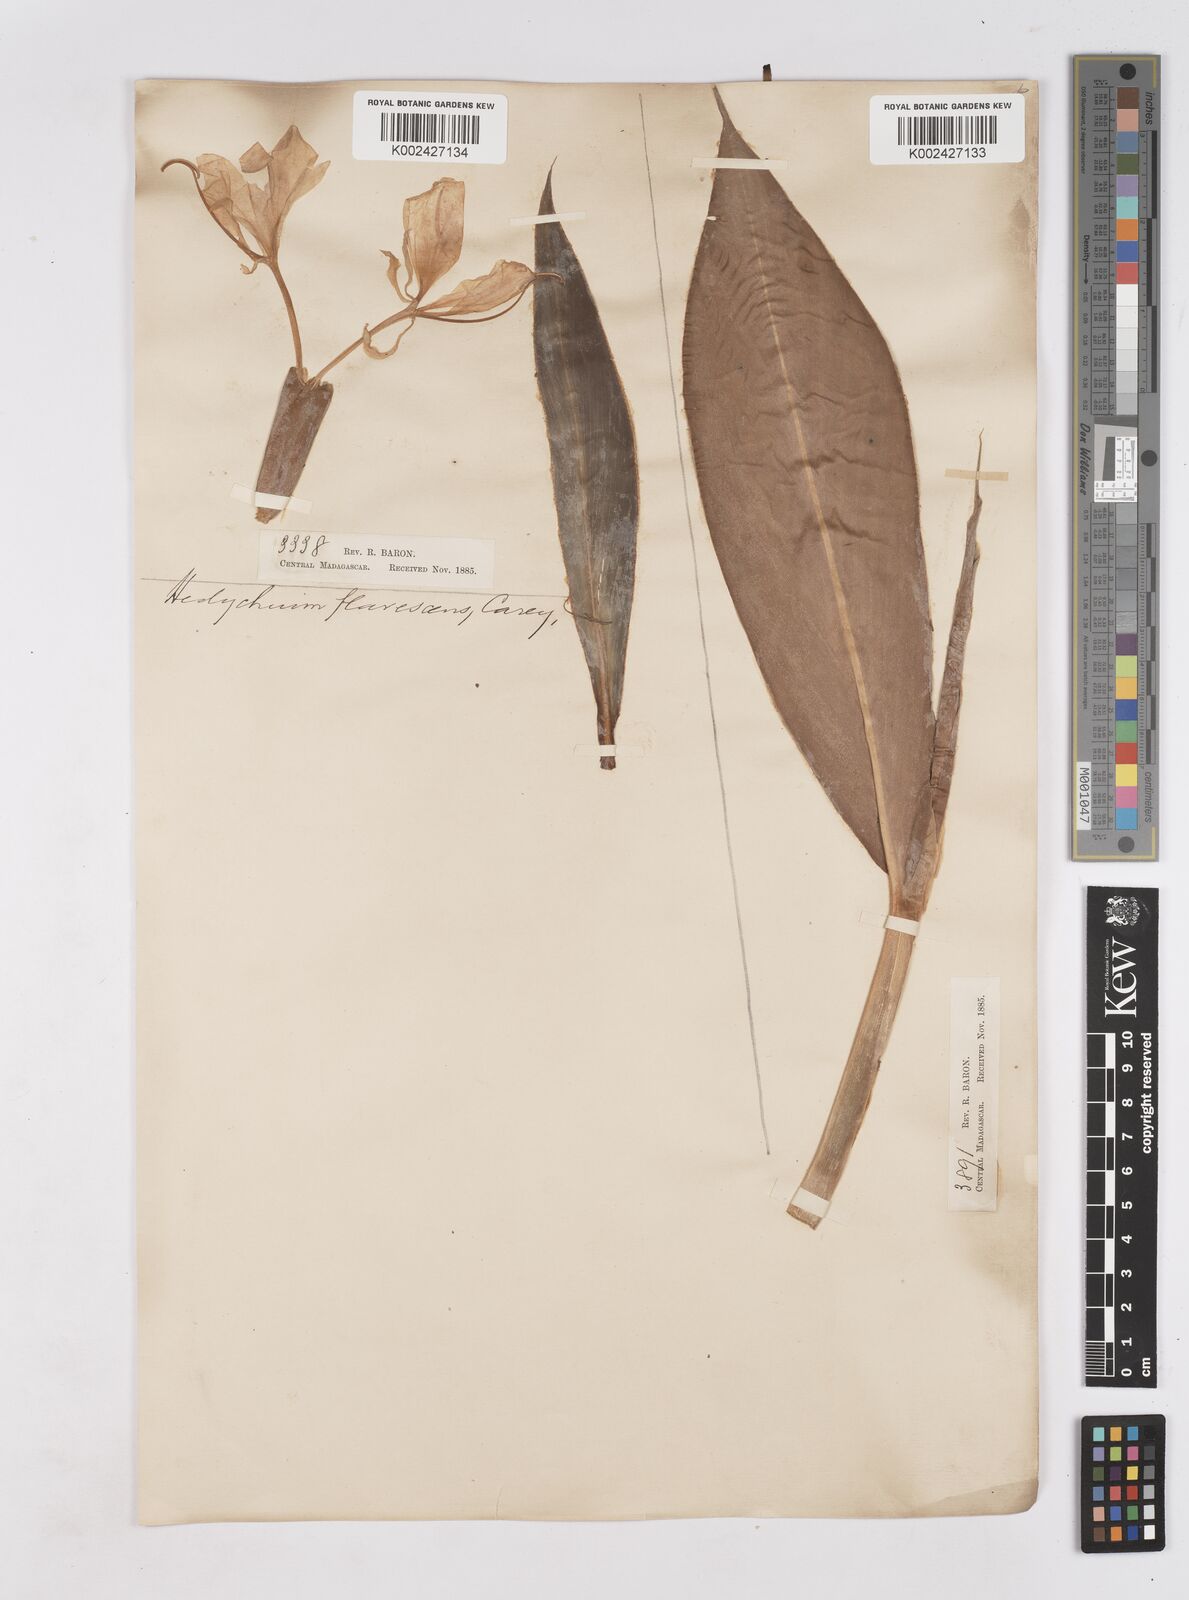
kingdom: Plantae
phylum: Tracheophyta
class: Liliopsida
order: Zingiberales
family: Zingiberaceae
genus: Hedychium
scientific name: Hedychium coronarium
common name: White garland-lily
